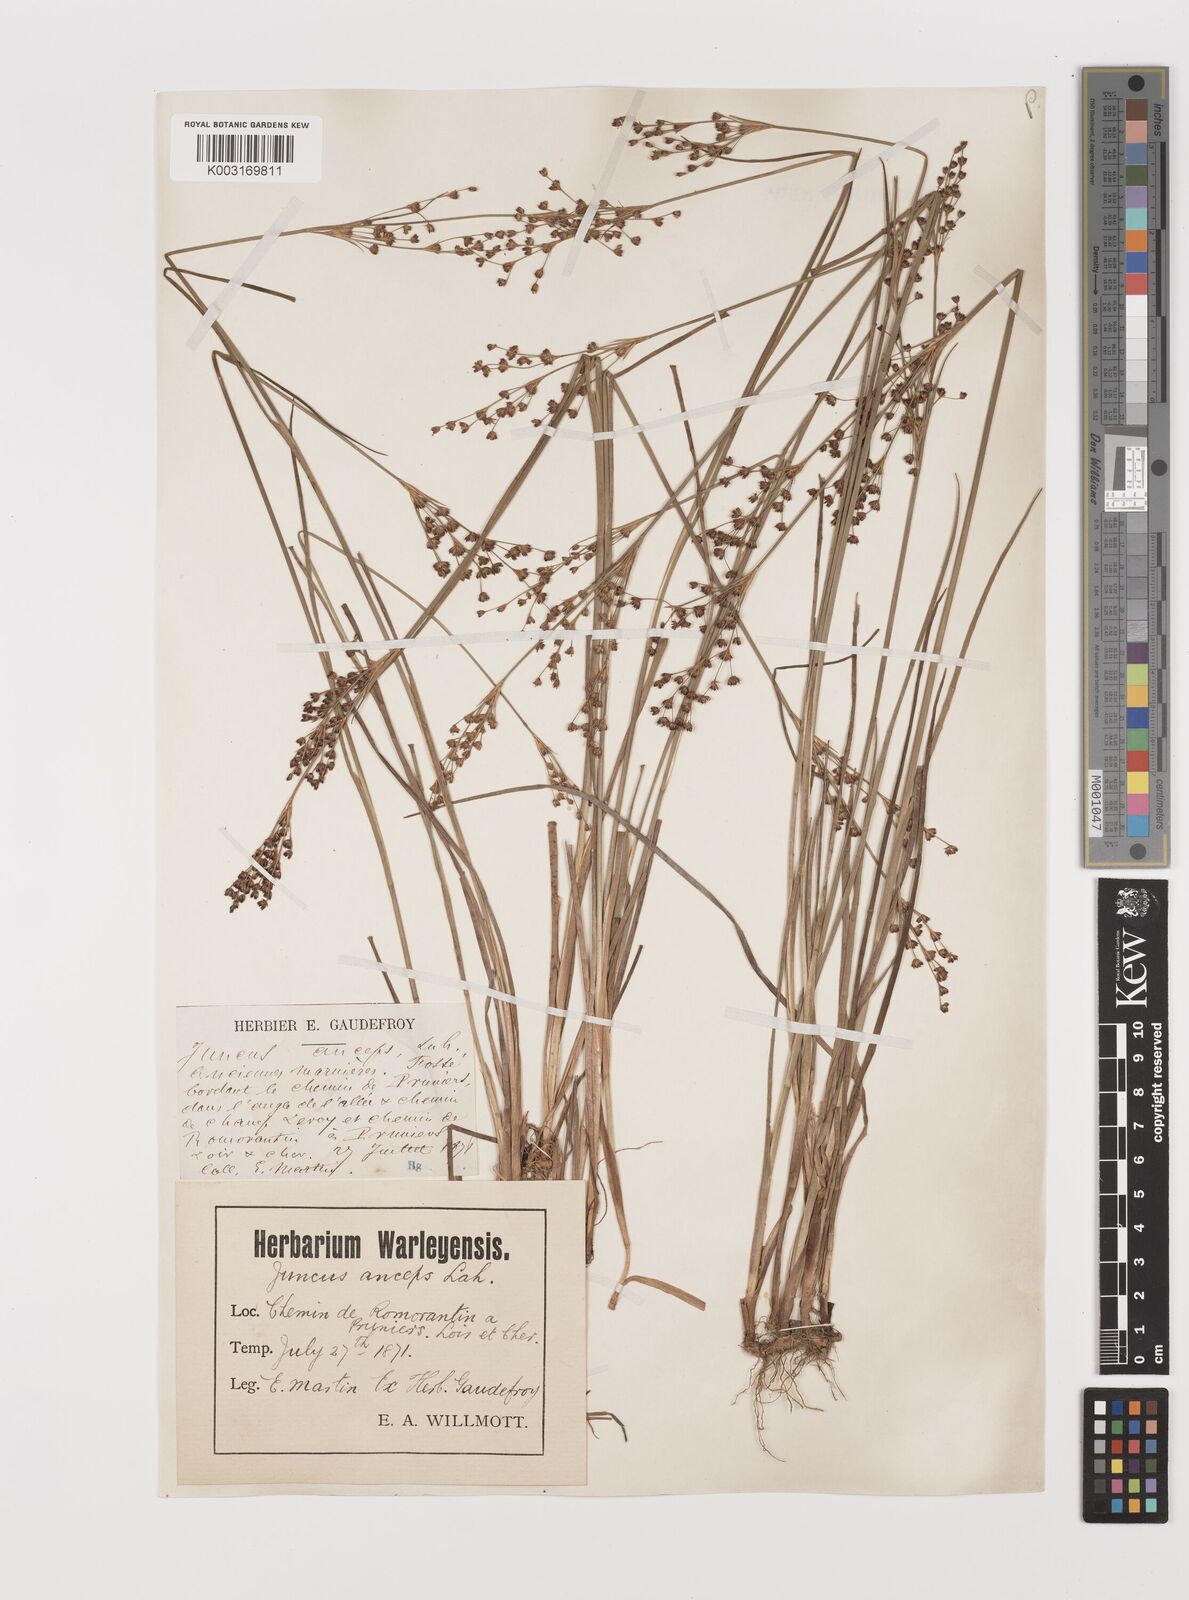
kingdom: Plantae
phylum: Tracheophyta
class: Liliopsida
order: Poales
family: Juncaceae
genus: Juncus
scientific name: Juncus anceps
